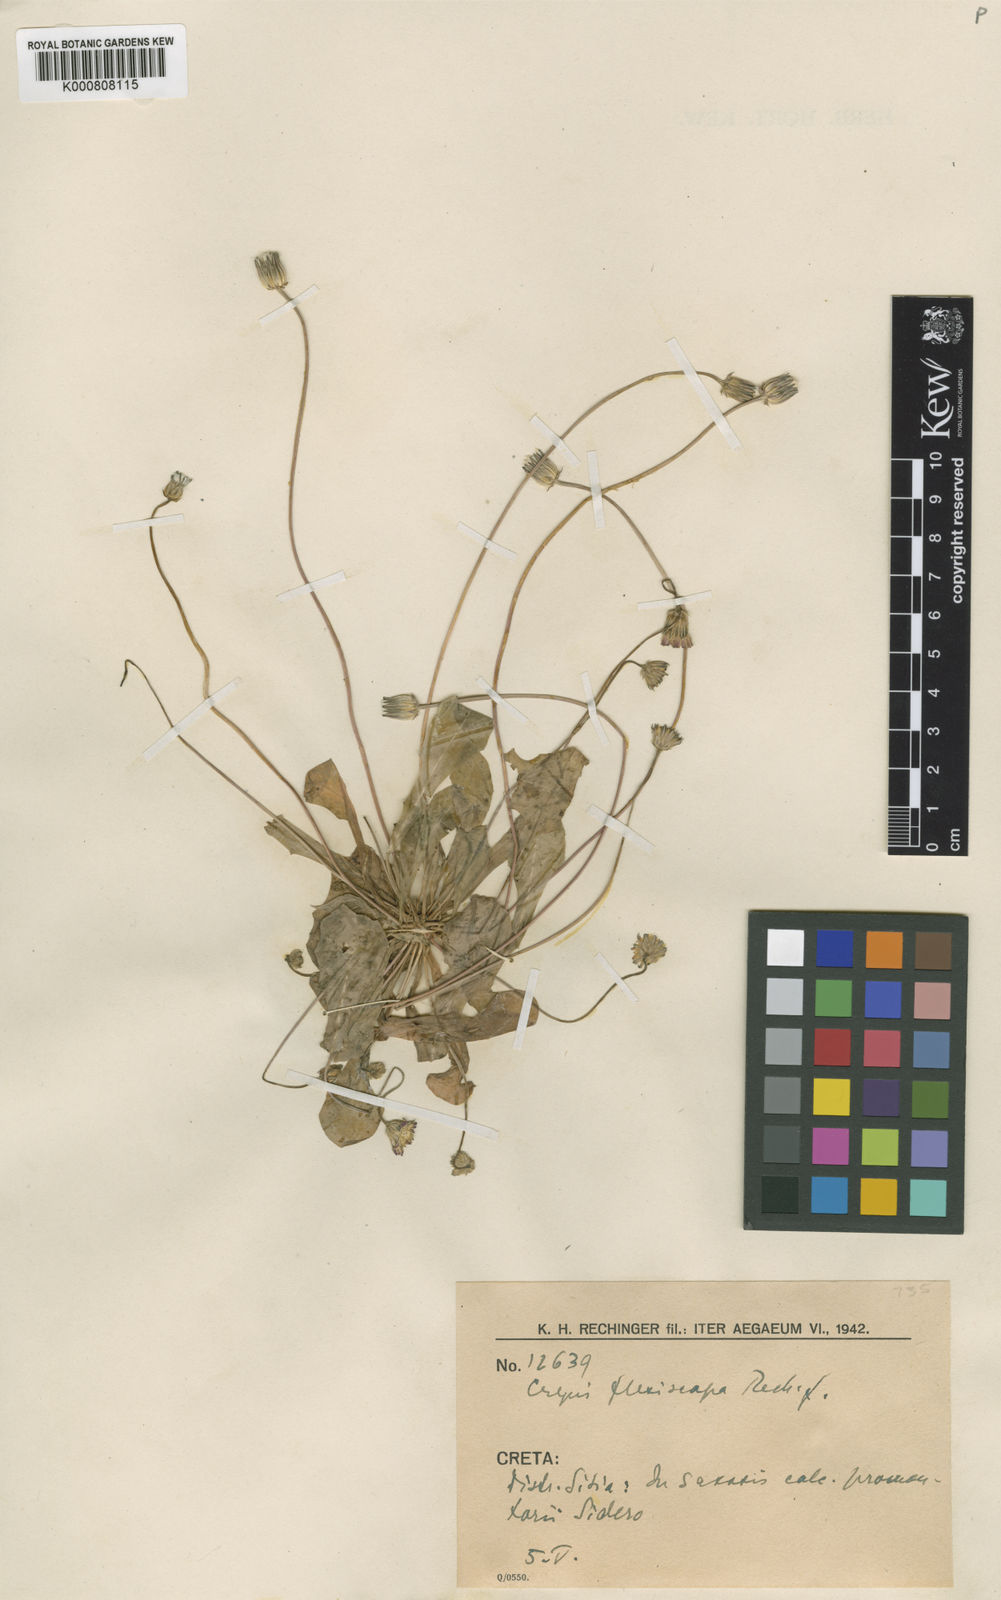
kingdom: Plantae
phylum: Tracheophyta
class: Magnoliopsida
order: Asterales
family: Asteraceae
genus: Crepis
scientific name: Crepis tybakiensis
